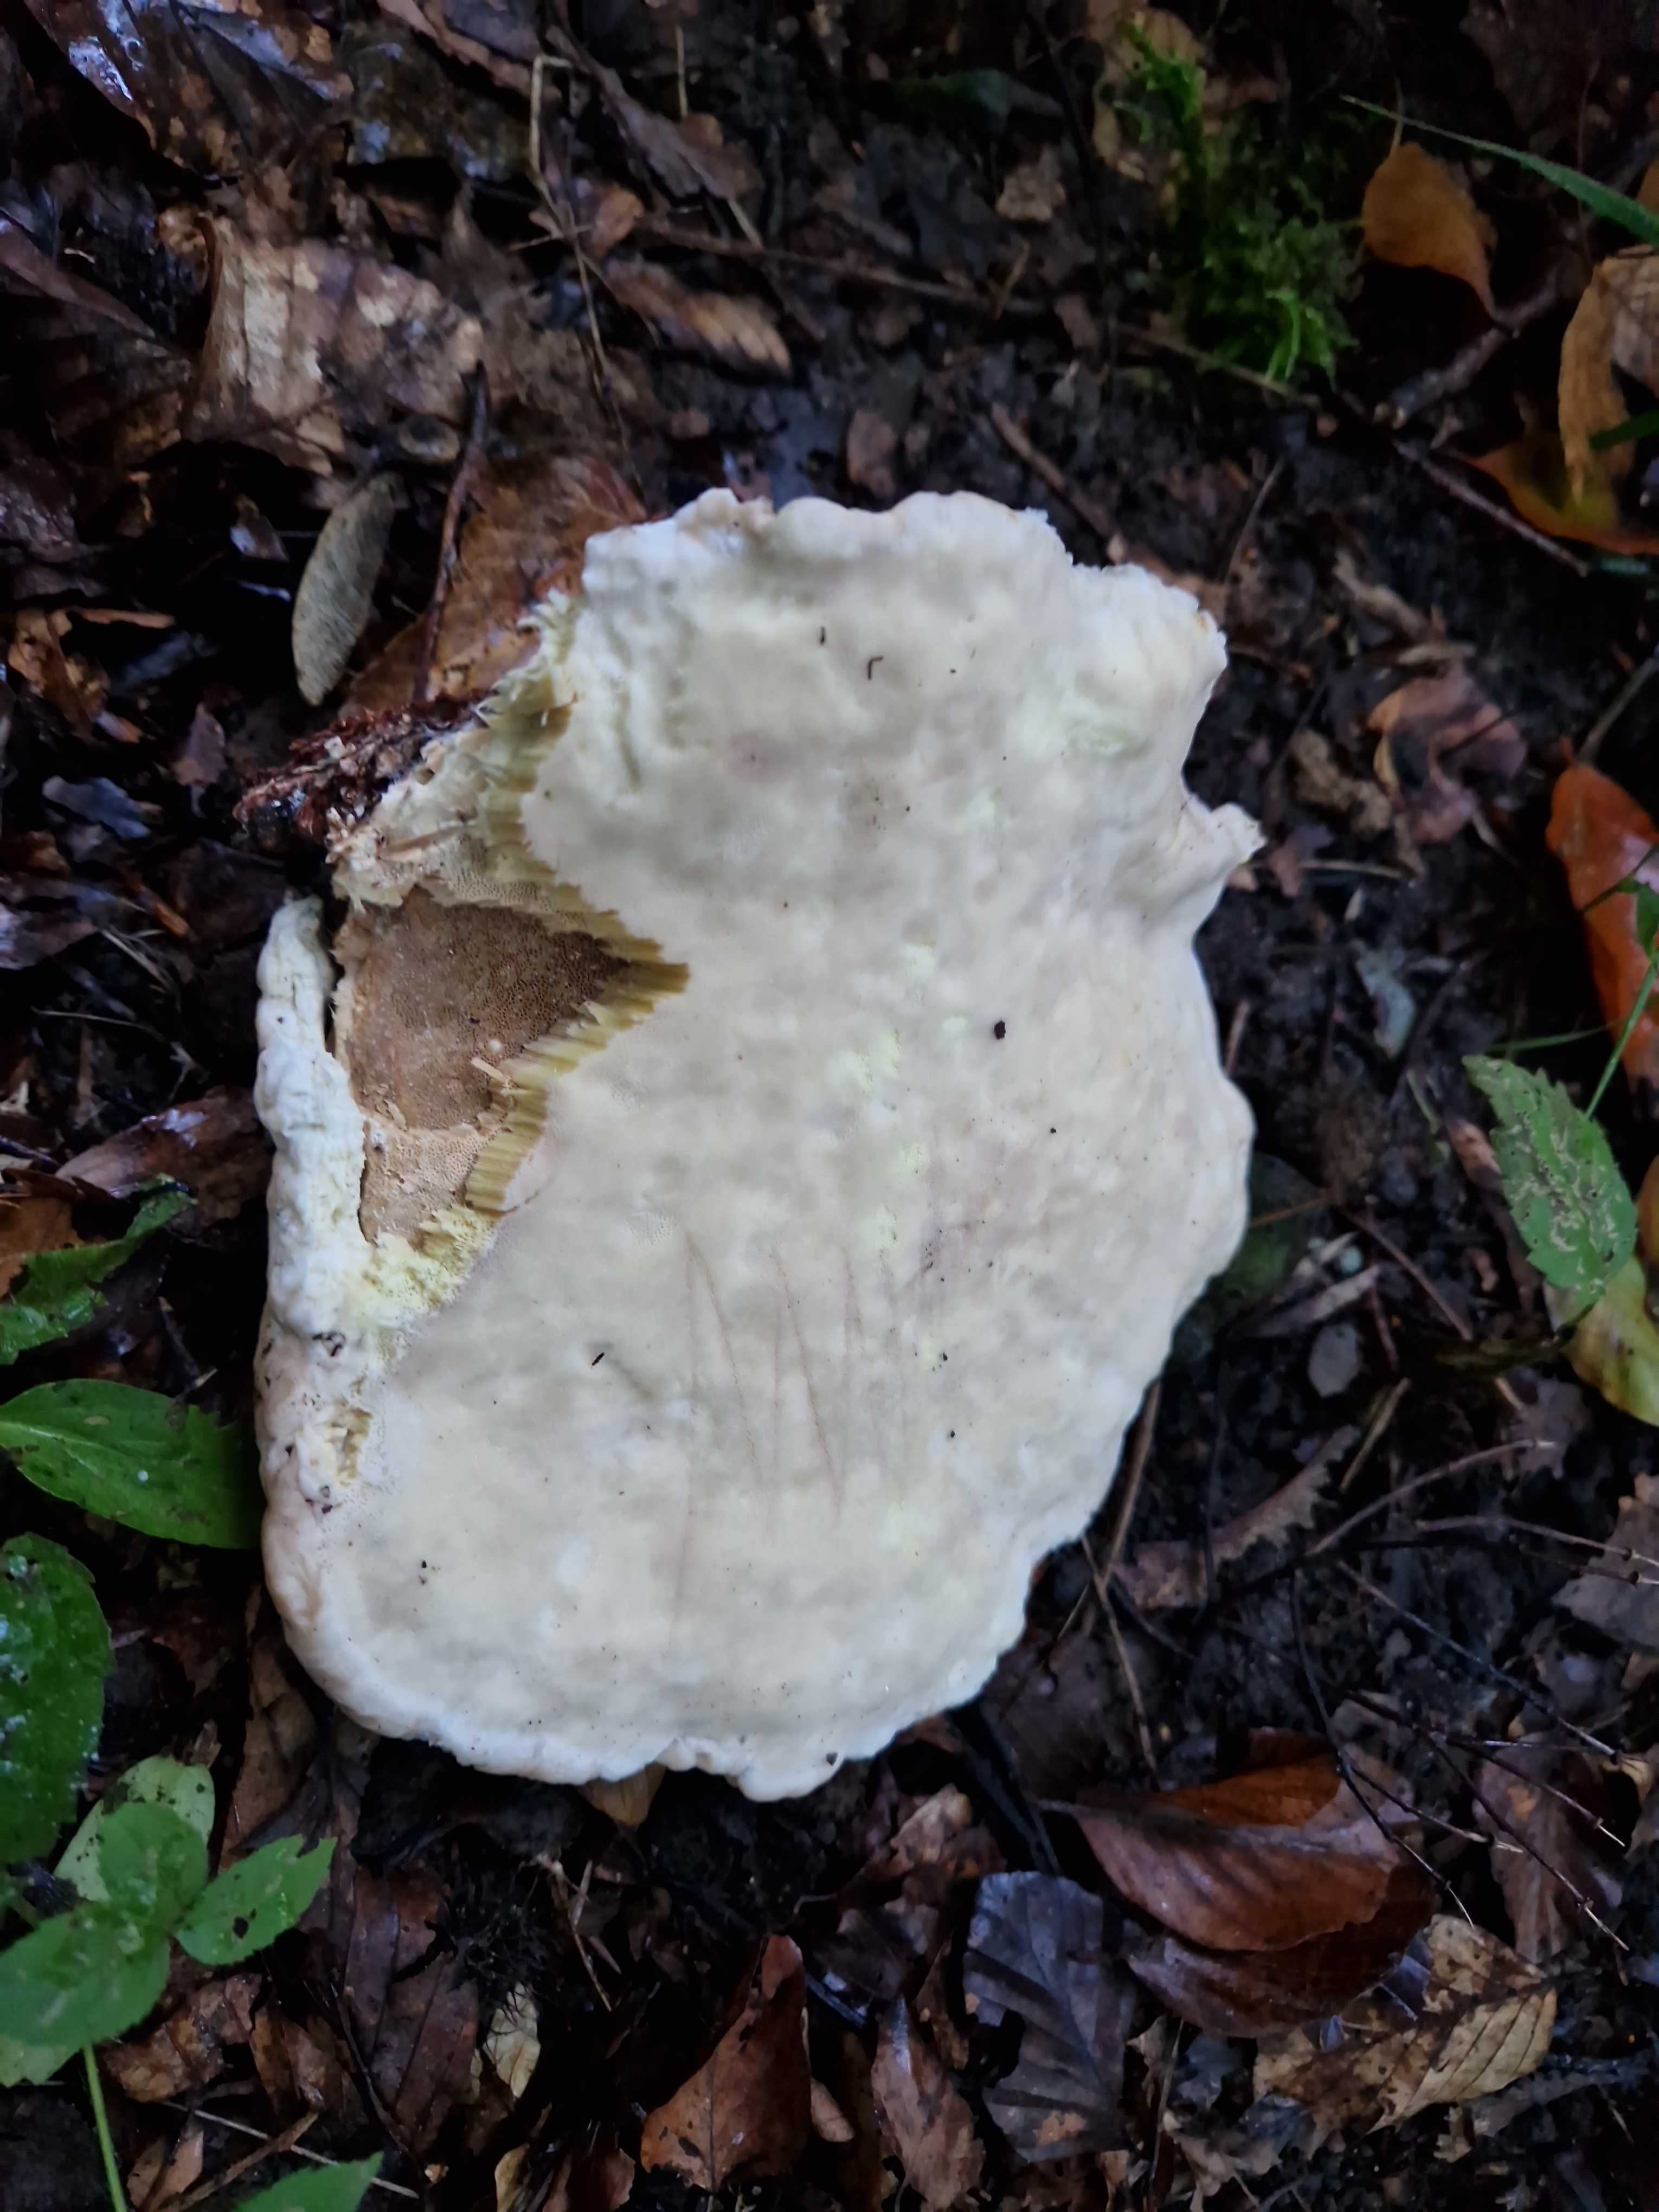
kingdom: Fungi
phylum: Basidiomycota
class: Agaricomycetes
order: Polyporales
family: Fomitopsidaceae
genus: Fomitopsis
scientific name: Fomitopsis pinicola
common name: randbæltet hovporesvamp
